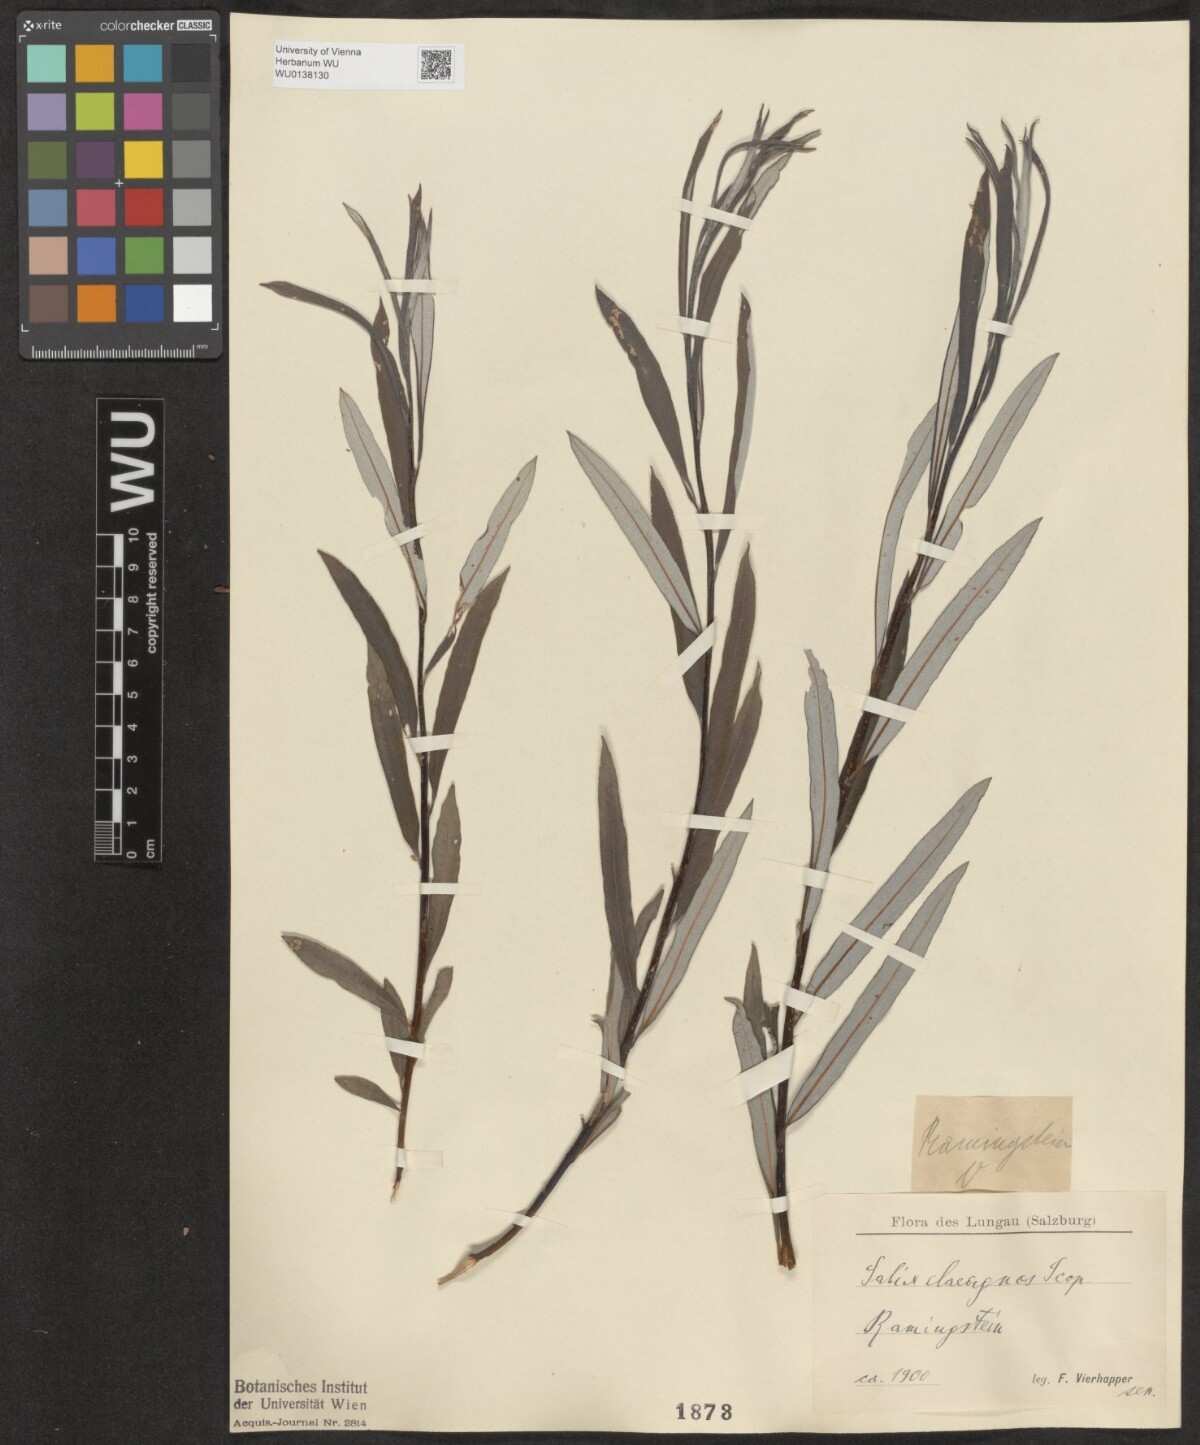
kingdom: Plantae
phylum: Tracheophyta
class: Magnoliopsida
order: Malpighiales
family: Salicaceae
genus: Salix
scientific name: Salix eleagnos
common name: Elaeagnus willow
